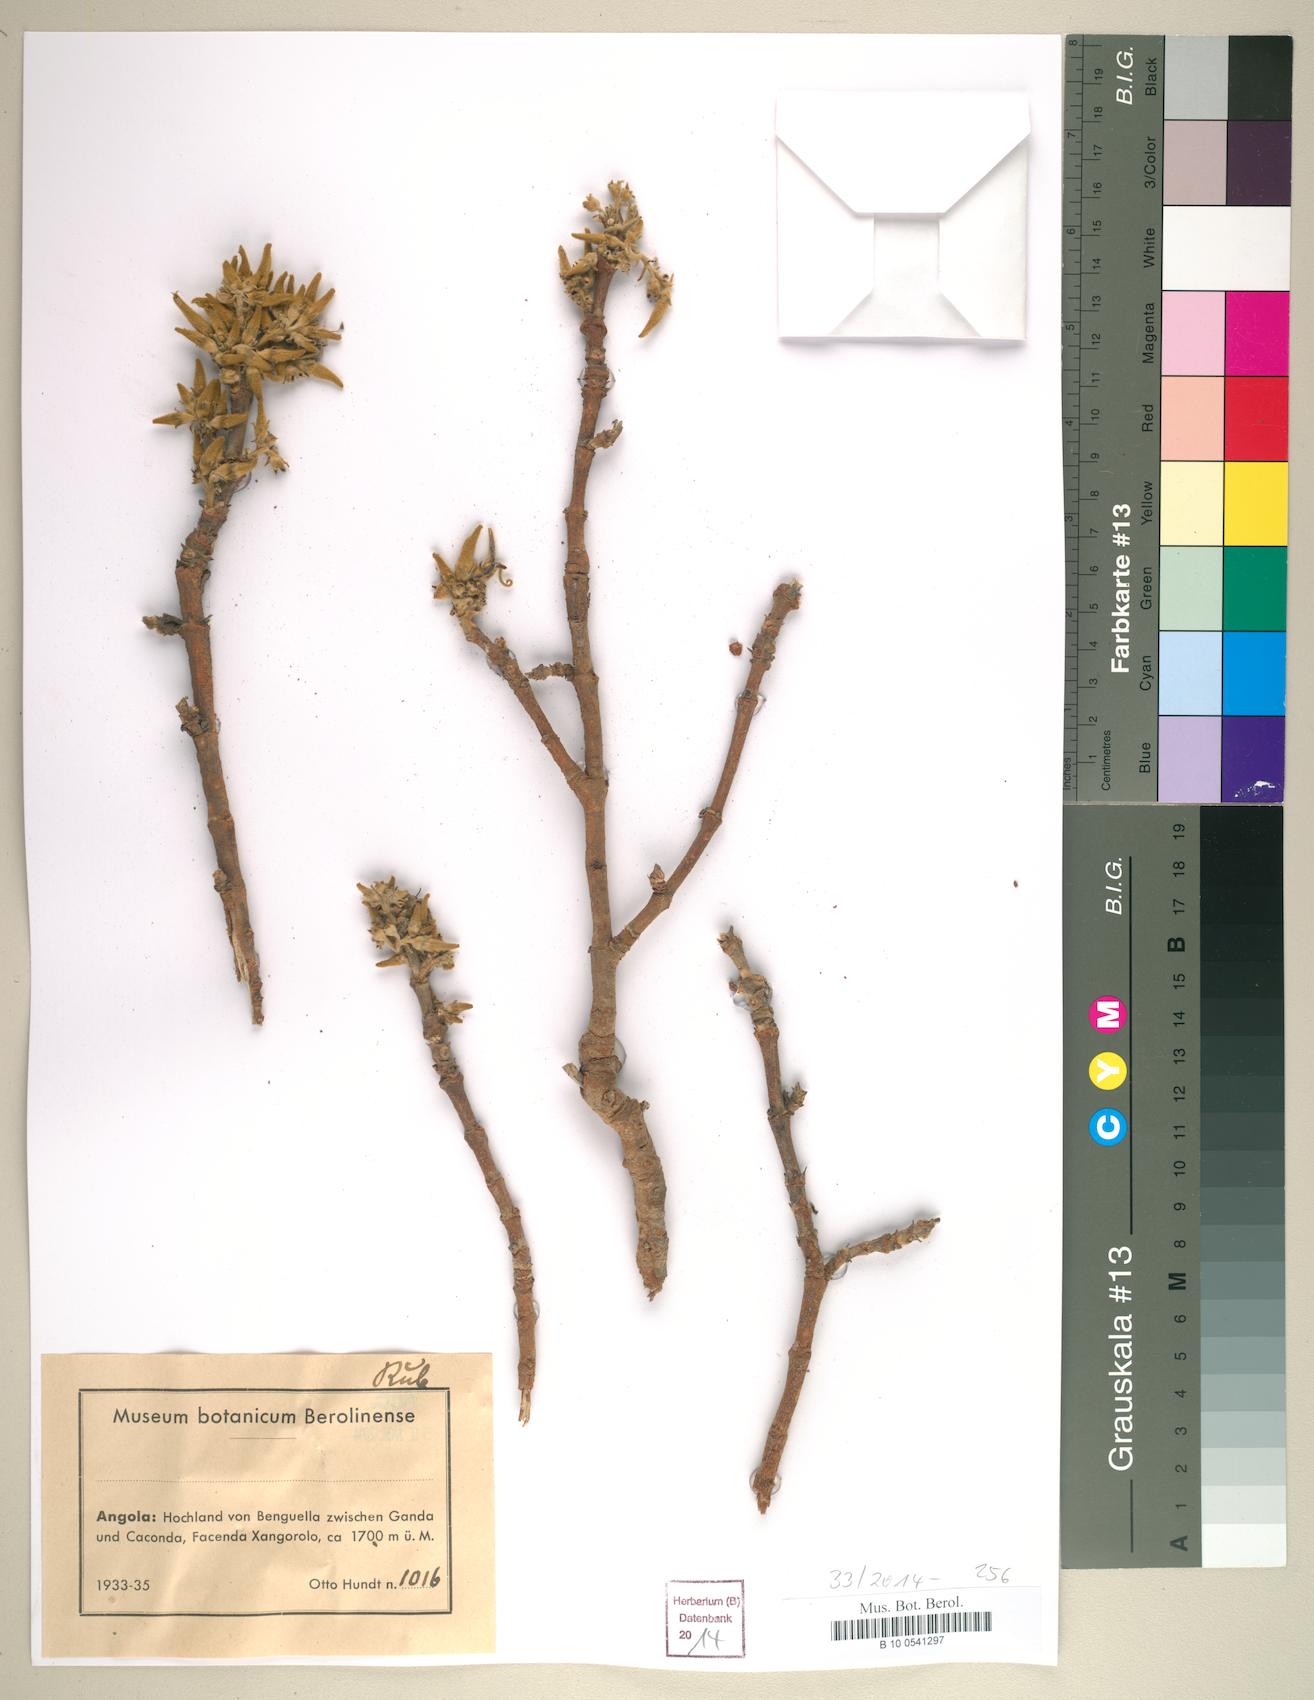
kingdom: Plantae
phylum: Tracheophyta
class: Magnoliopsida
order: Gentianales
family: Rubiaceae
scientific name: Rubiaceae
